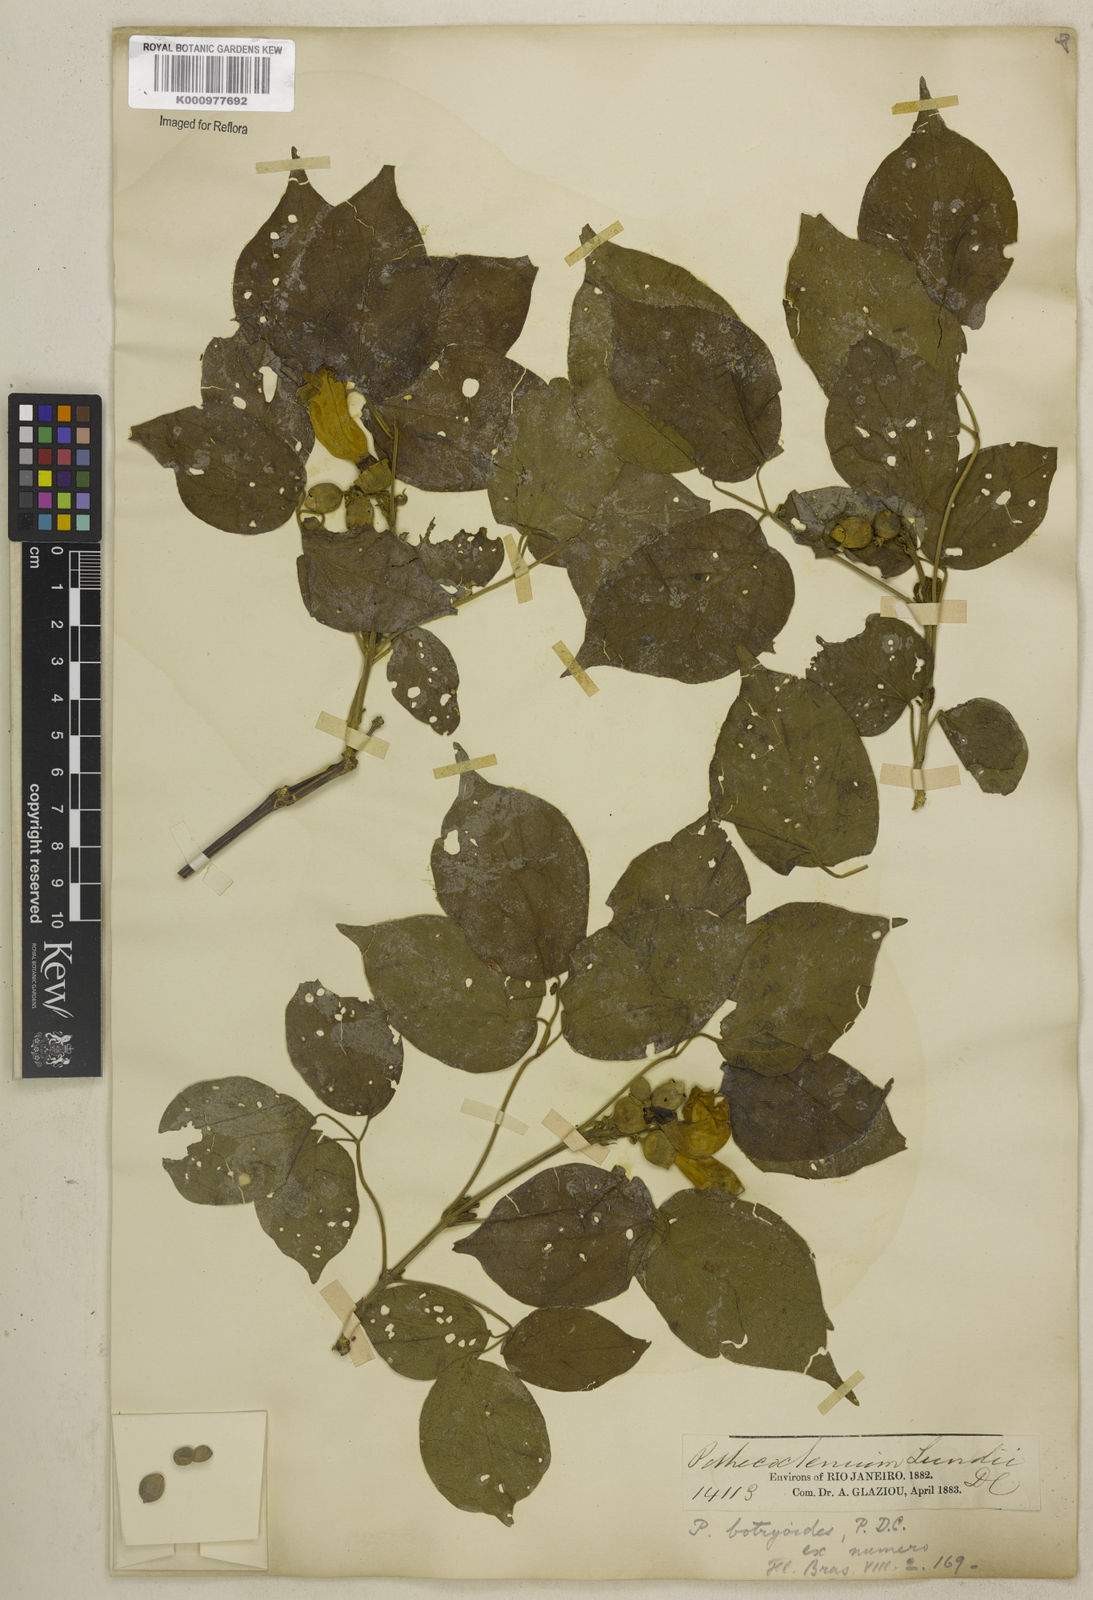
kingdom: Plantae
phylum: Tracheophyta
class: Magnoliopsida
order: Lamiales
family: Bignoniaceae
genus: Amphilophium
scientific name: Amphilophium crucigerum
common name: Monkey comb
